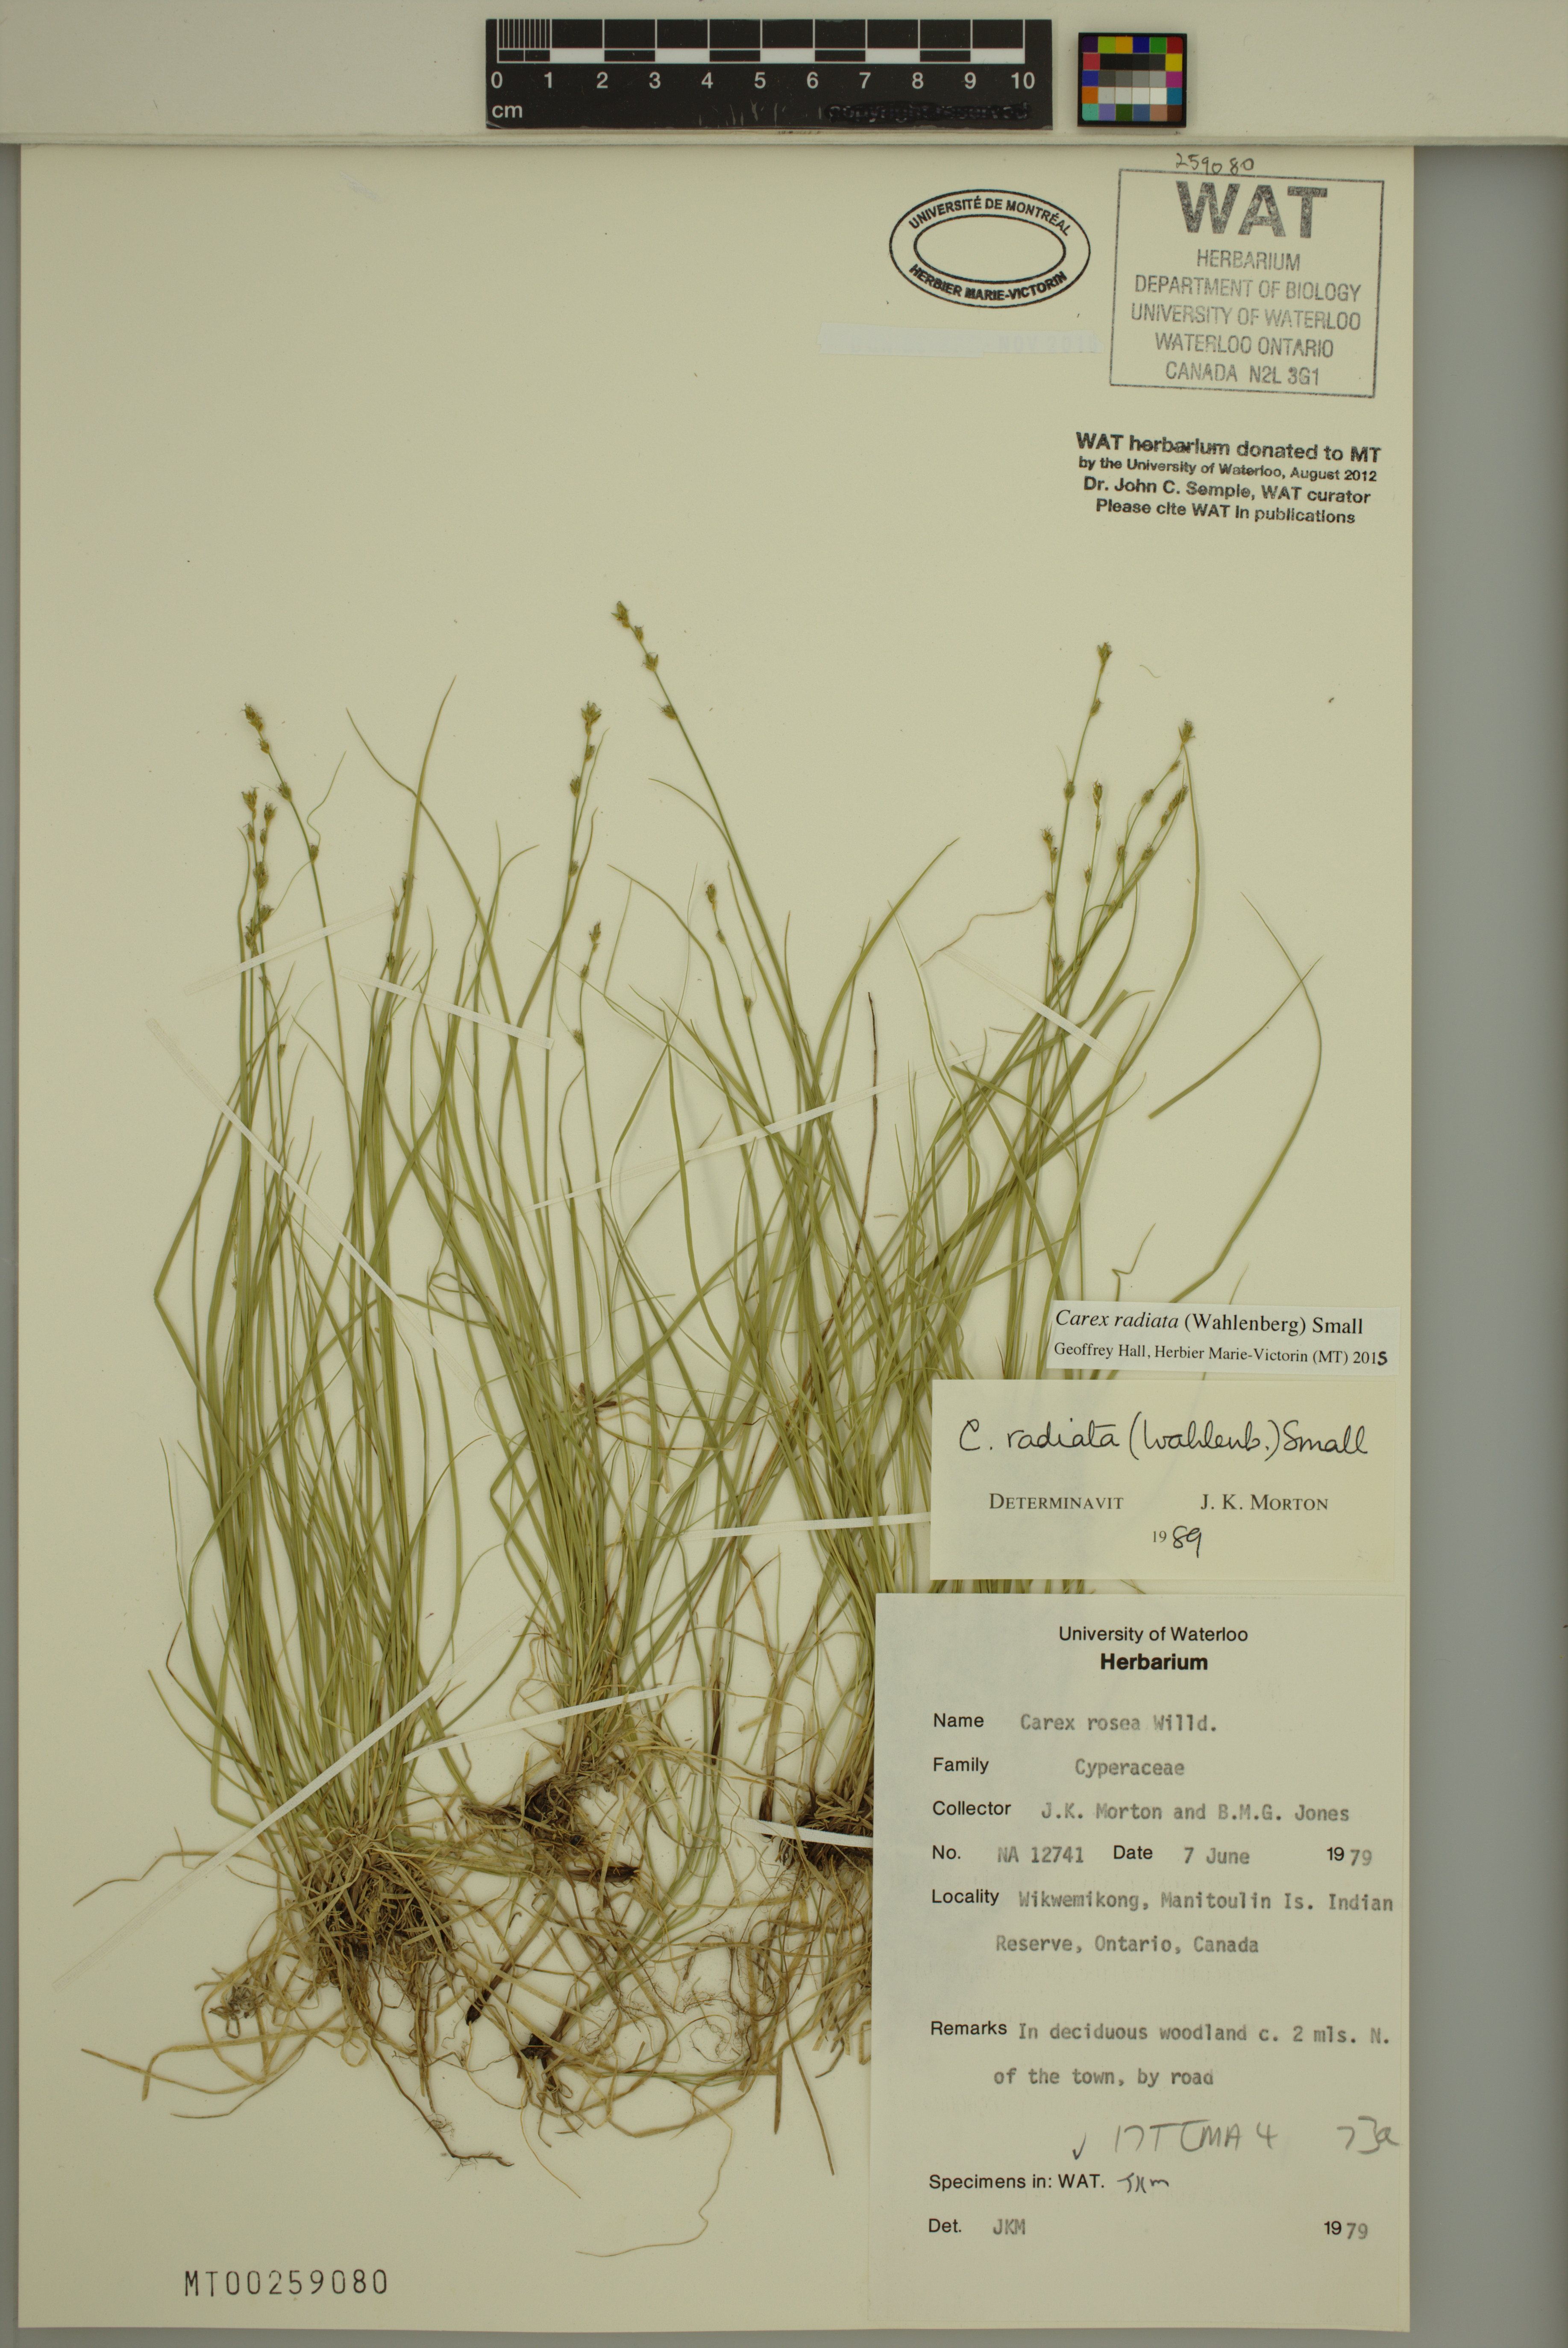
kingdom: Plantae
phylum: Tracheophyta
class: Liliopsida
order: Poales
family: Cyperaceae
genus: Carex
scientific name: Carex radiata
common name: Eastern star sedge
